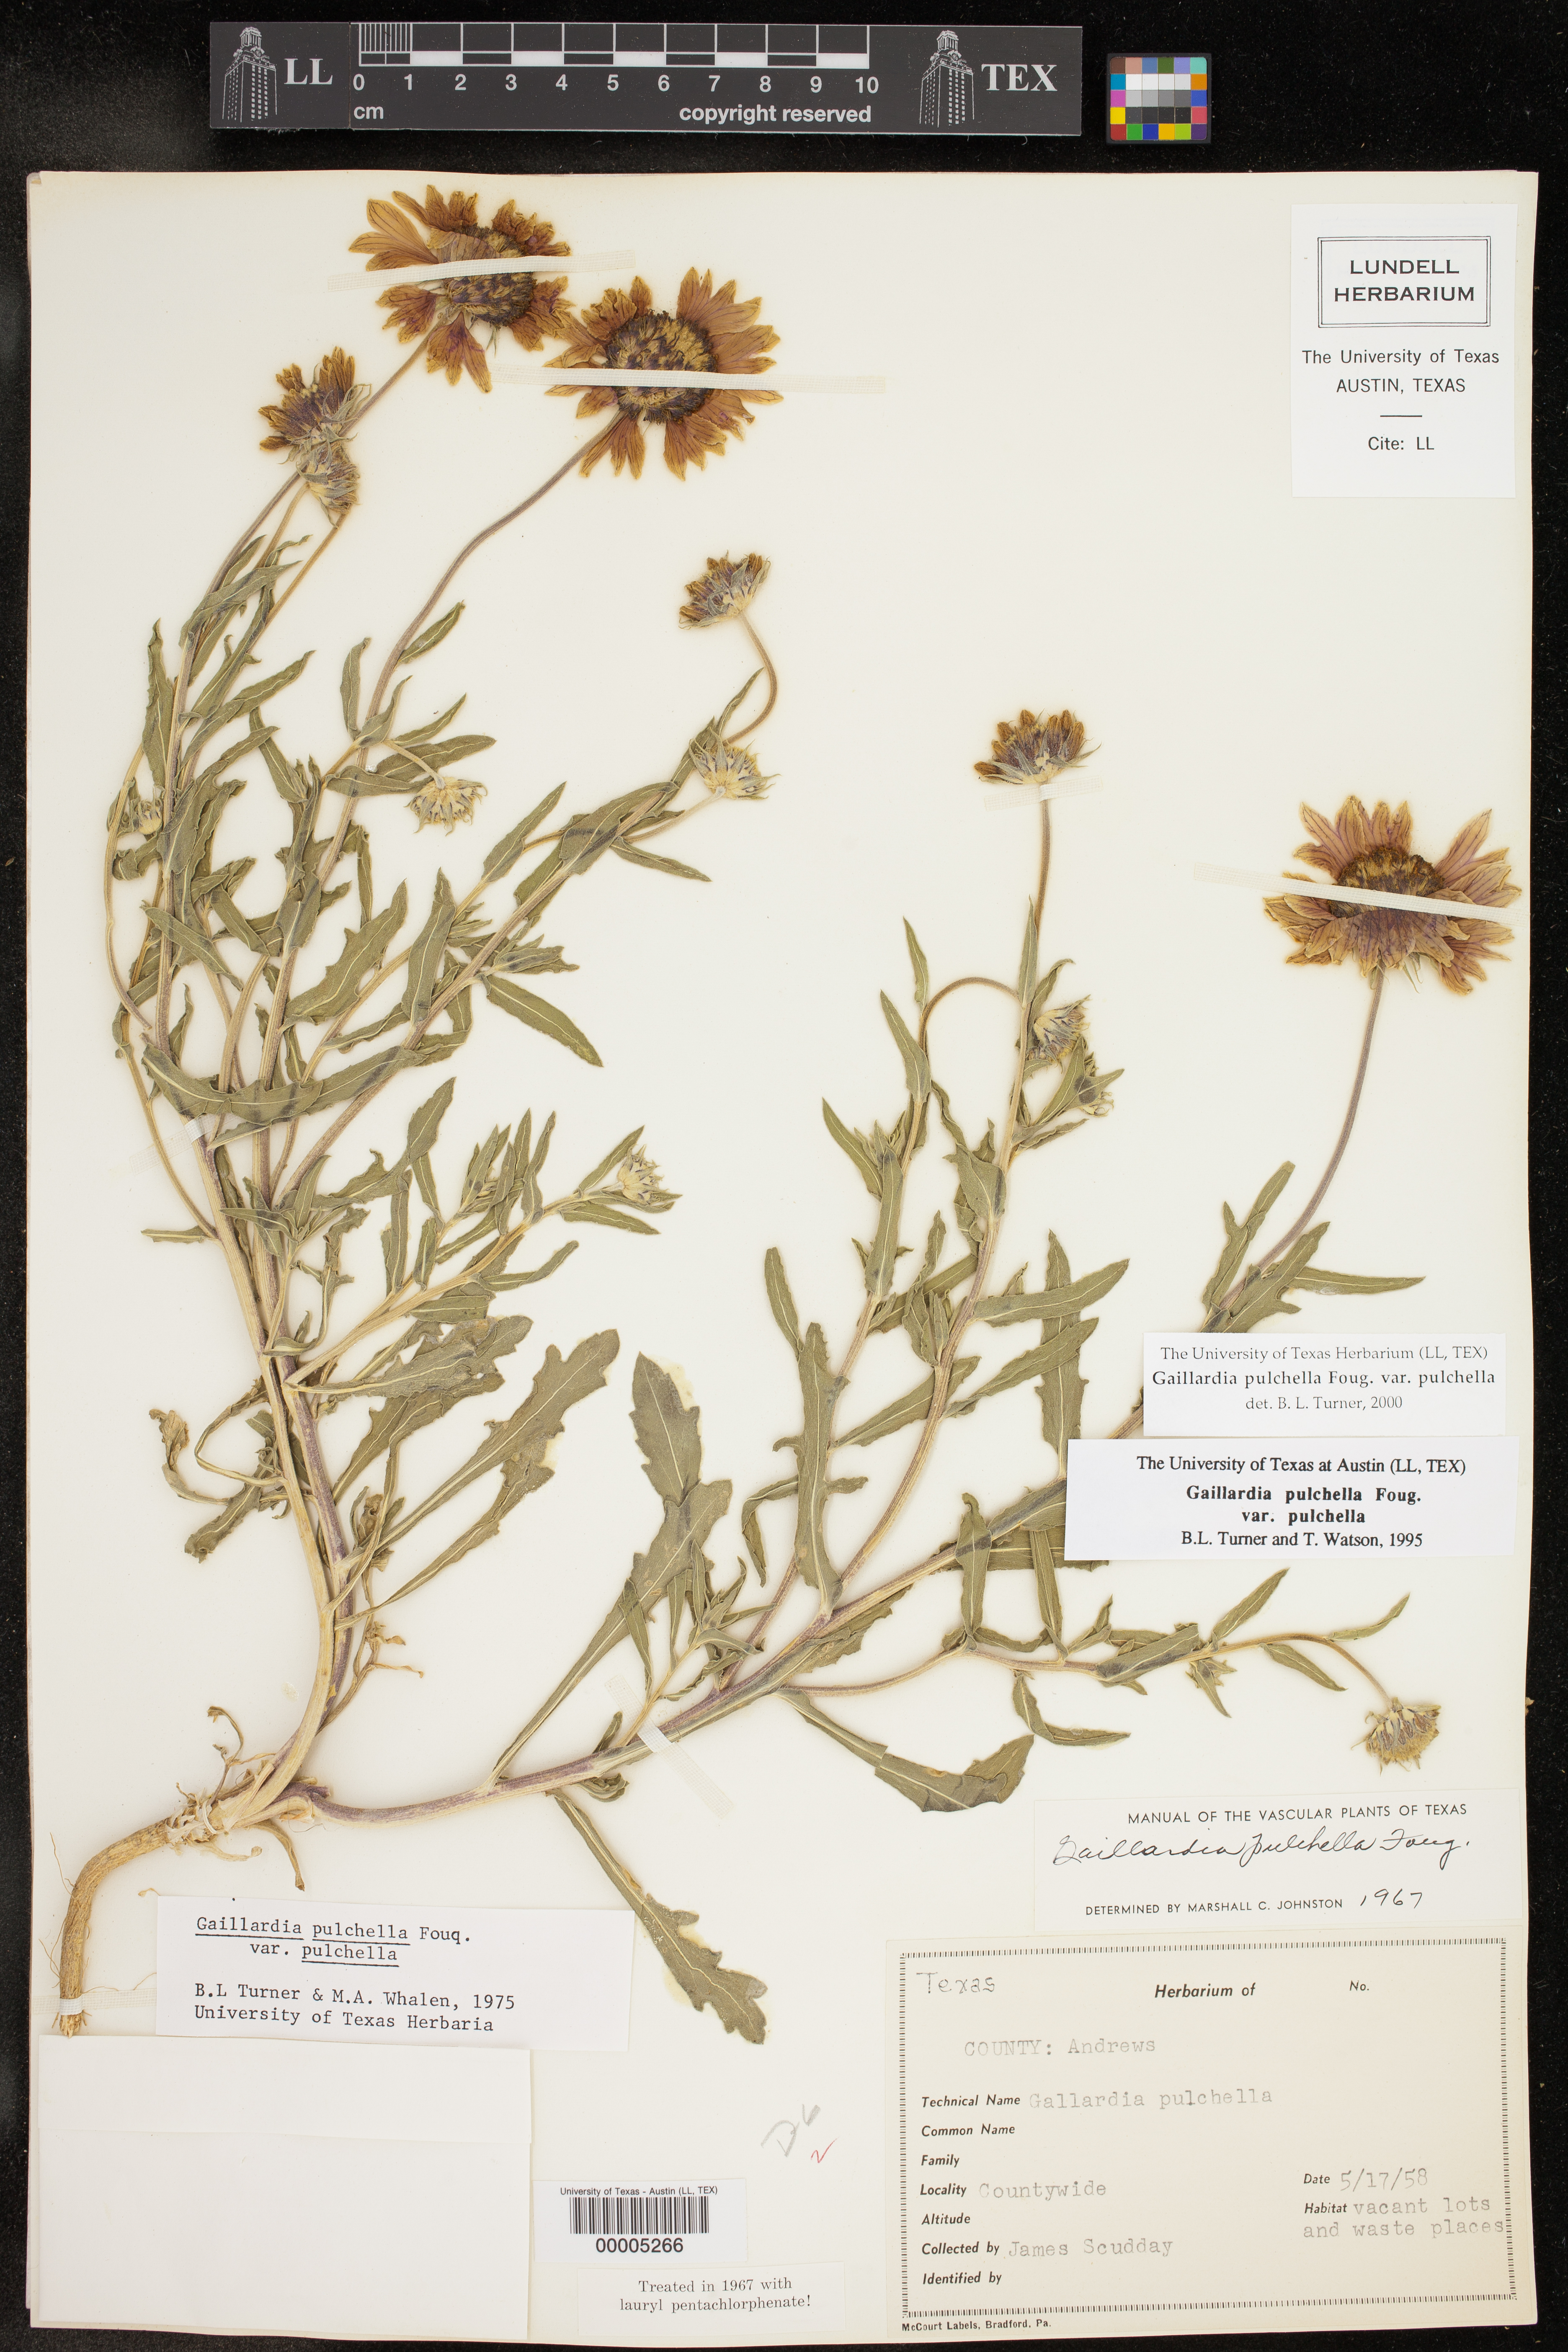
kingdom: Plantae
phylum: Tracheophyta
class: Magnoliopsida
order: Asterales
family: Asteraceae
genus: Gaillardia
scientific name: Gaillardia pulchella
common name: Firewheel
